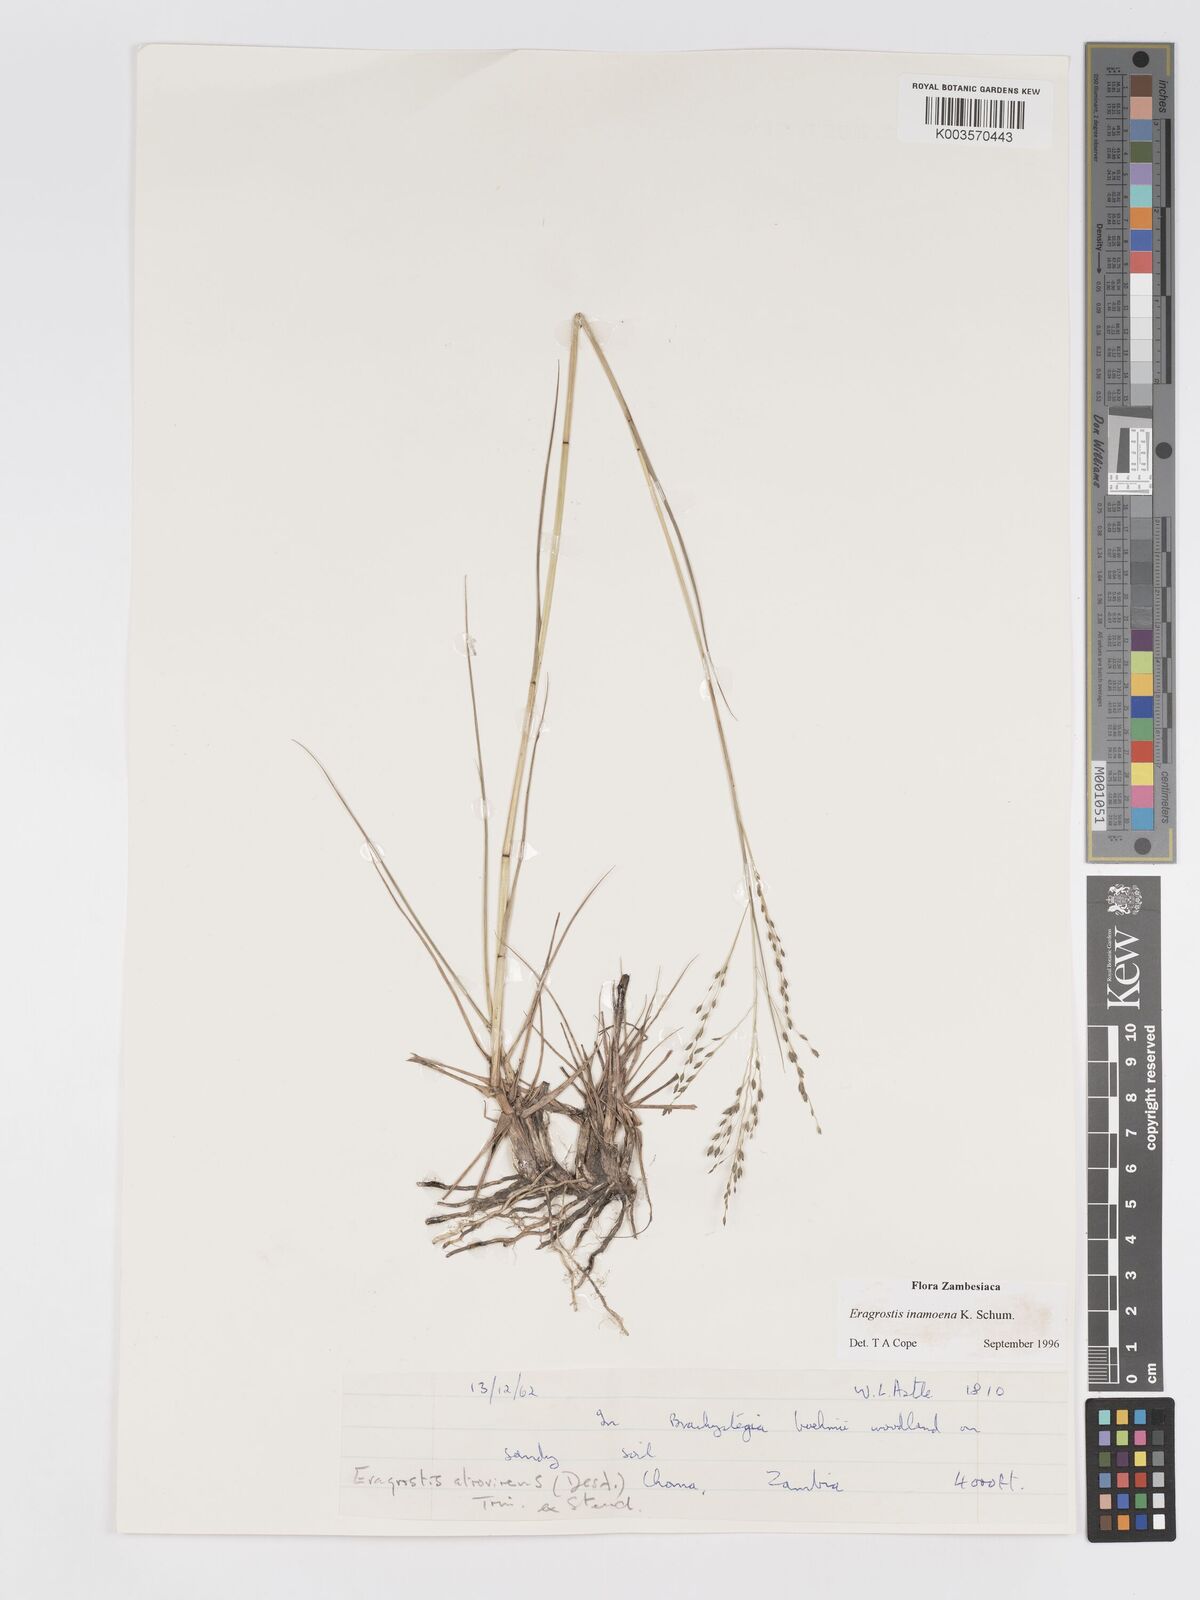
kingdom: Plantae
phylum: Tracheophyta
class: Liliopsida
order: Poales
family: Poaceae
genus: Eragrostis
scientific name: Eragrostis inamoena
